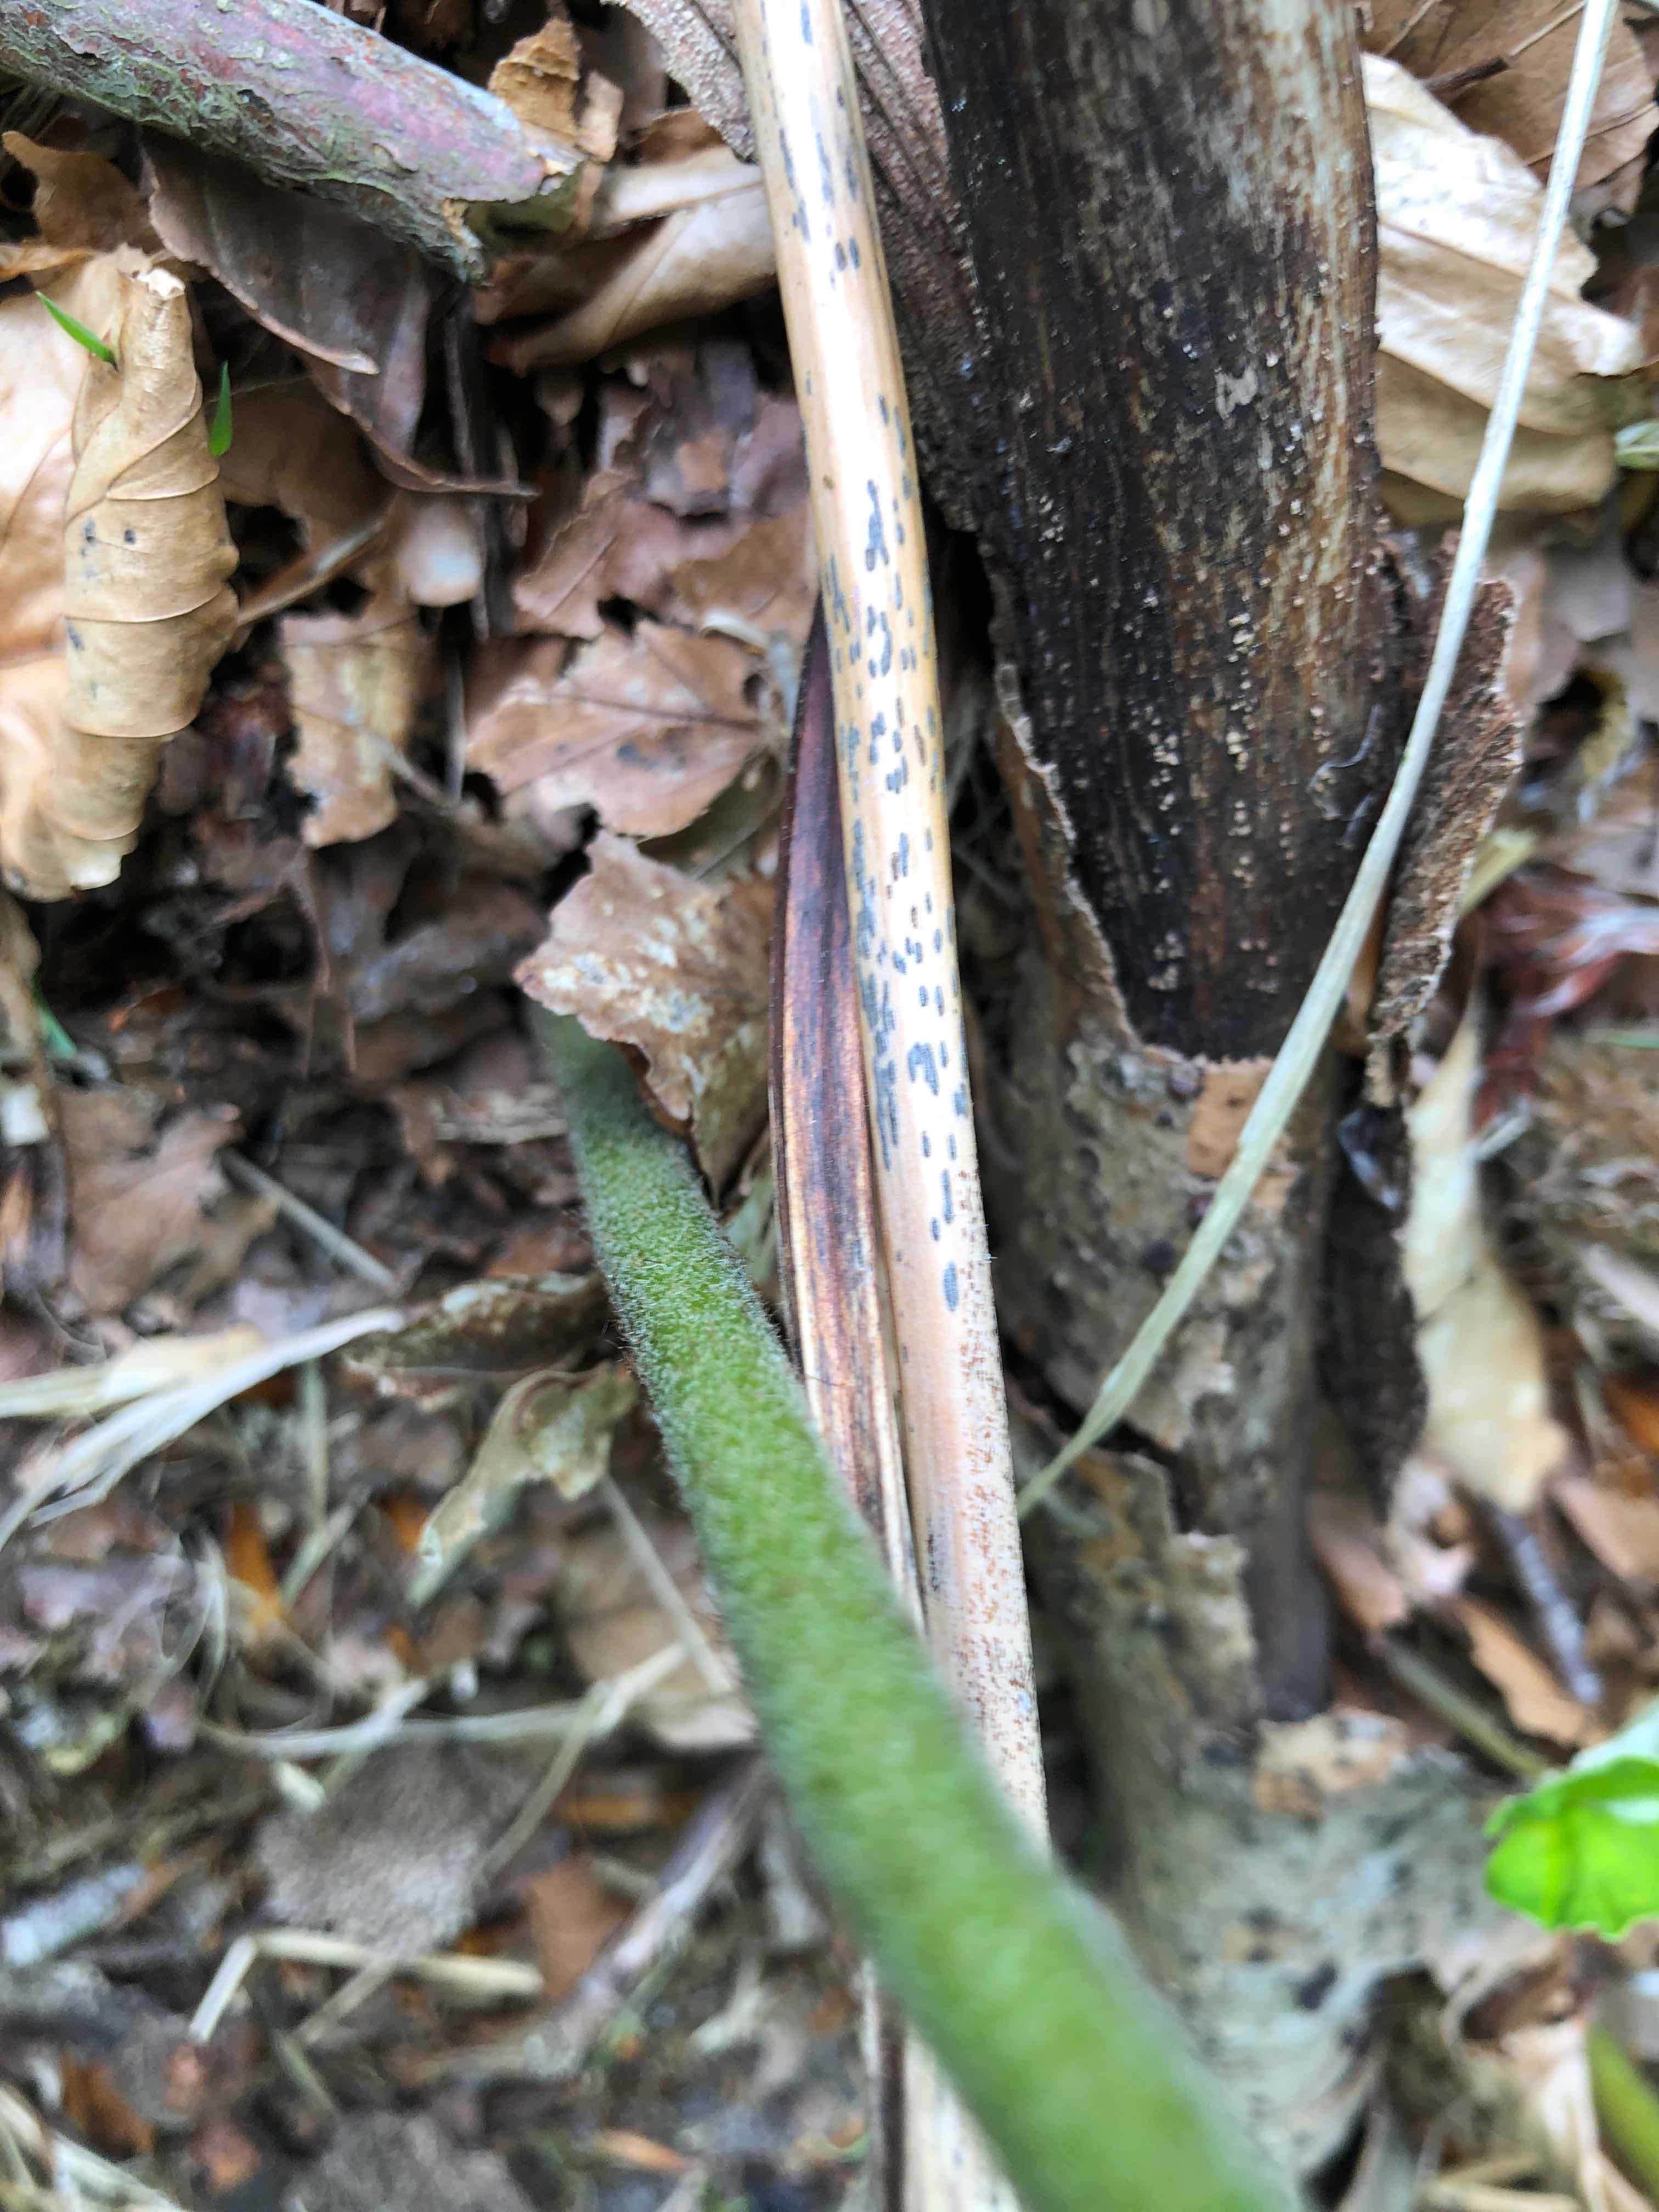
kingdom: Fungi
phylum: Ascomycota
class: Dothideomycetes
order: Pleosporales
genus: Rhopographus
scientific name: Rhopographus filicinus
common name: Bracken map
